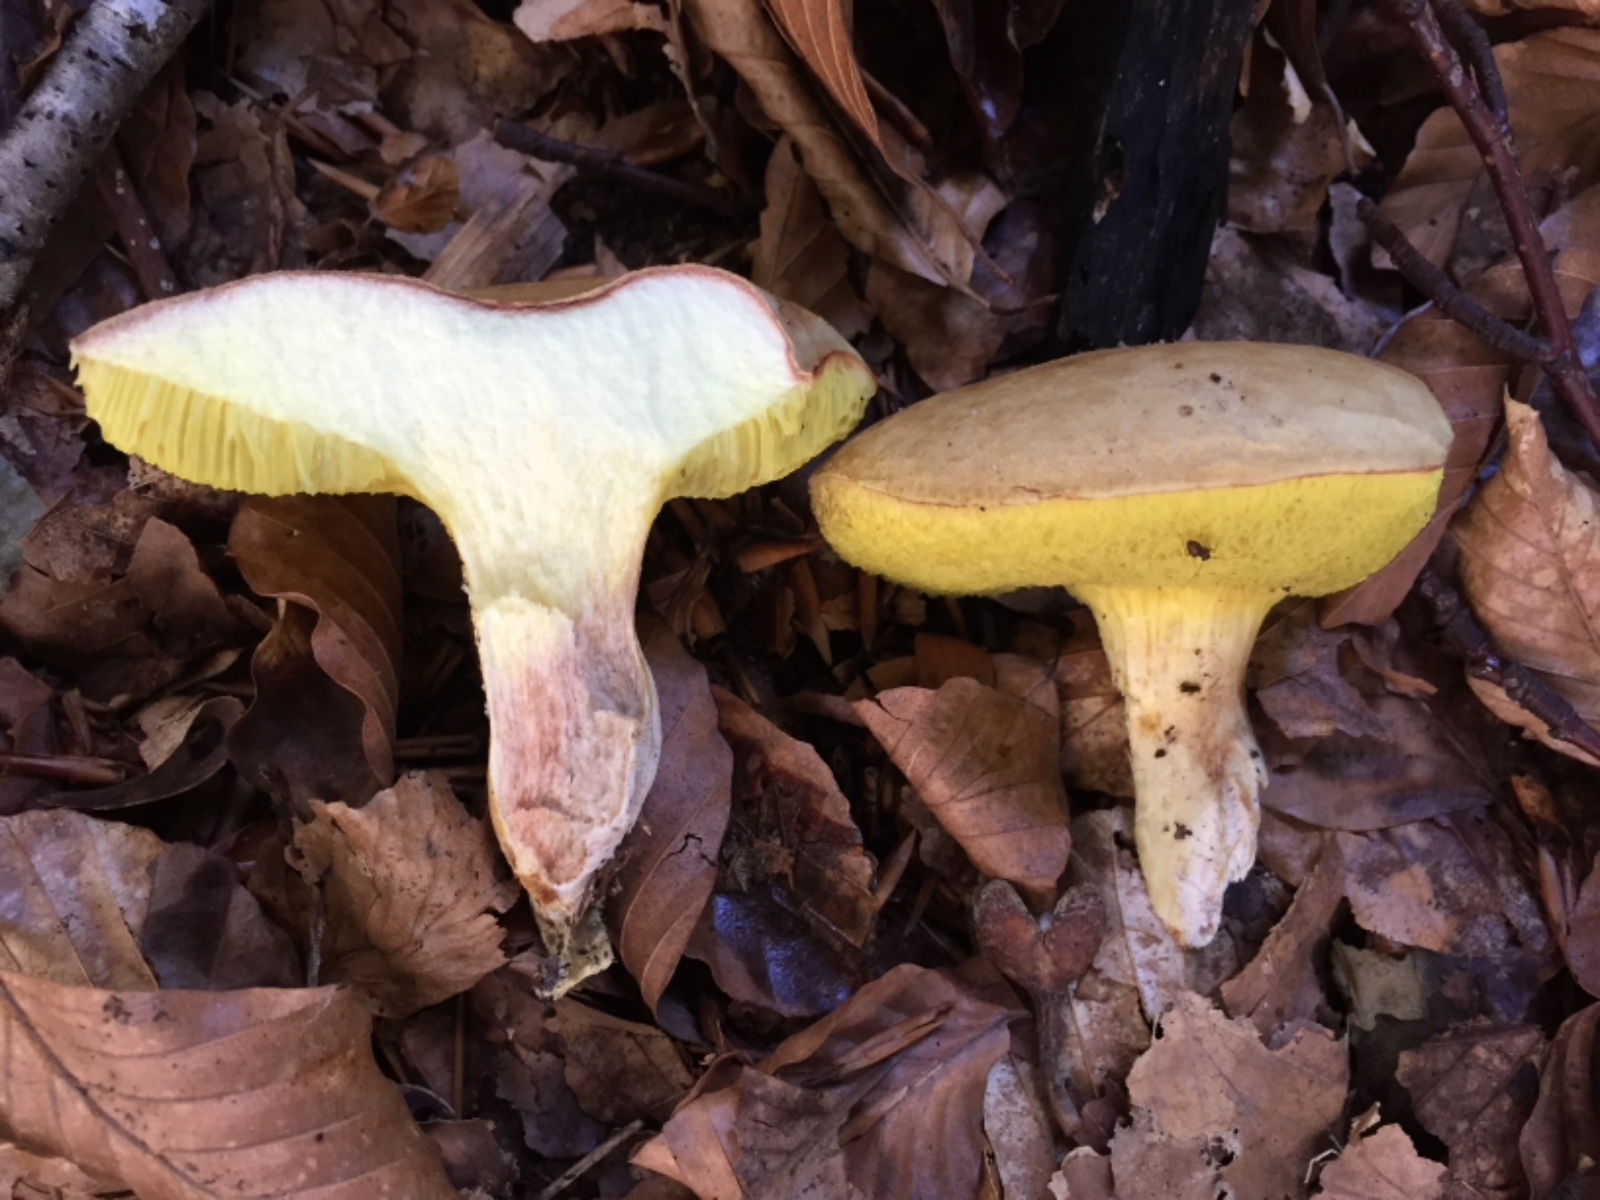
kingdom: Fungi
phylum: Basidiomycota
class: Agaricomycetes
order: Boletales
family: Boletaceae
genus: Xerocomus
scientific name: Xerocomus subtomentosus
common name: filtet rørhat
